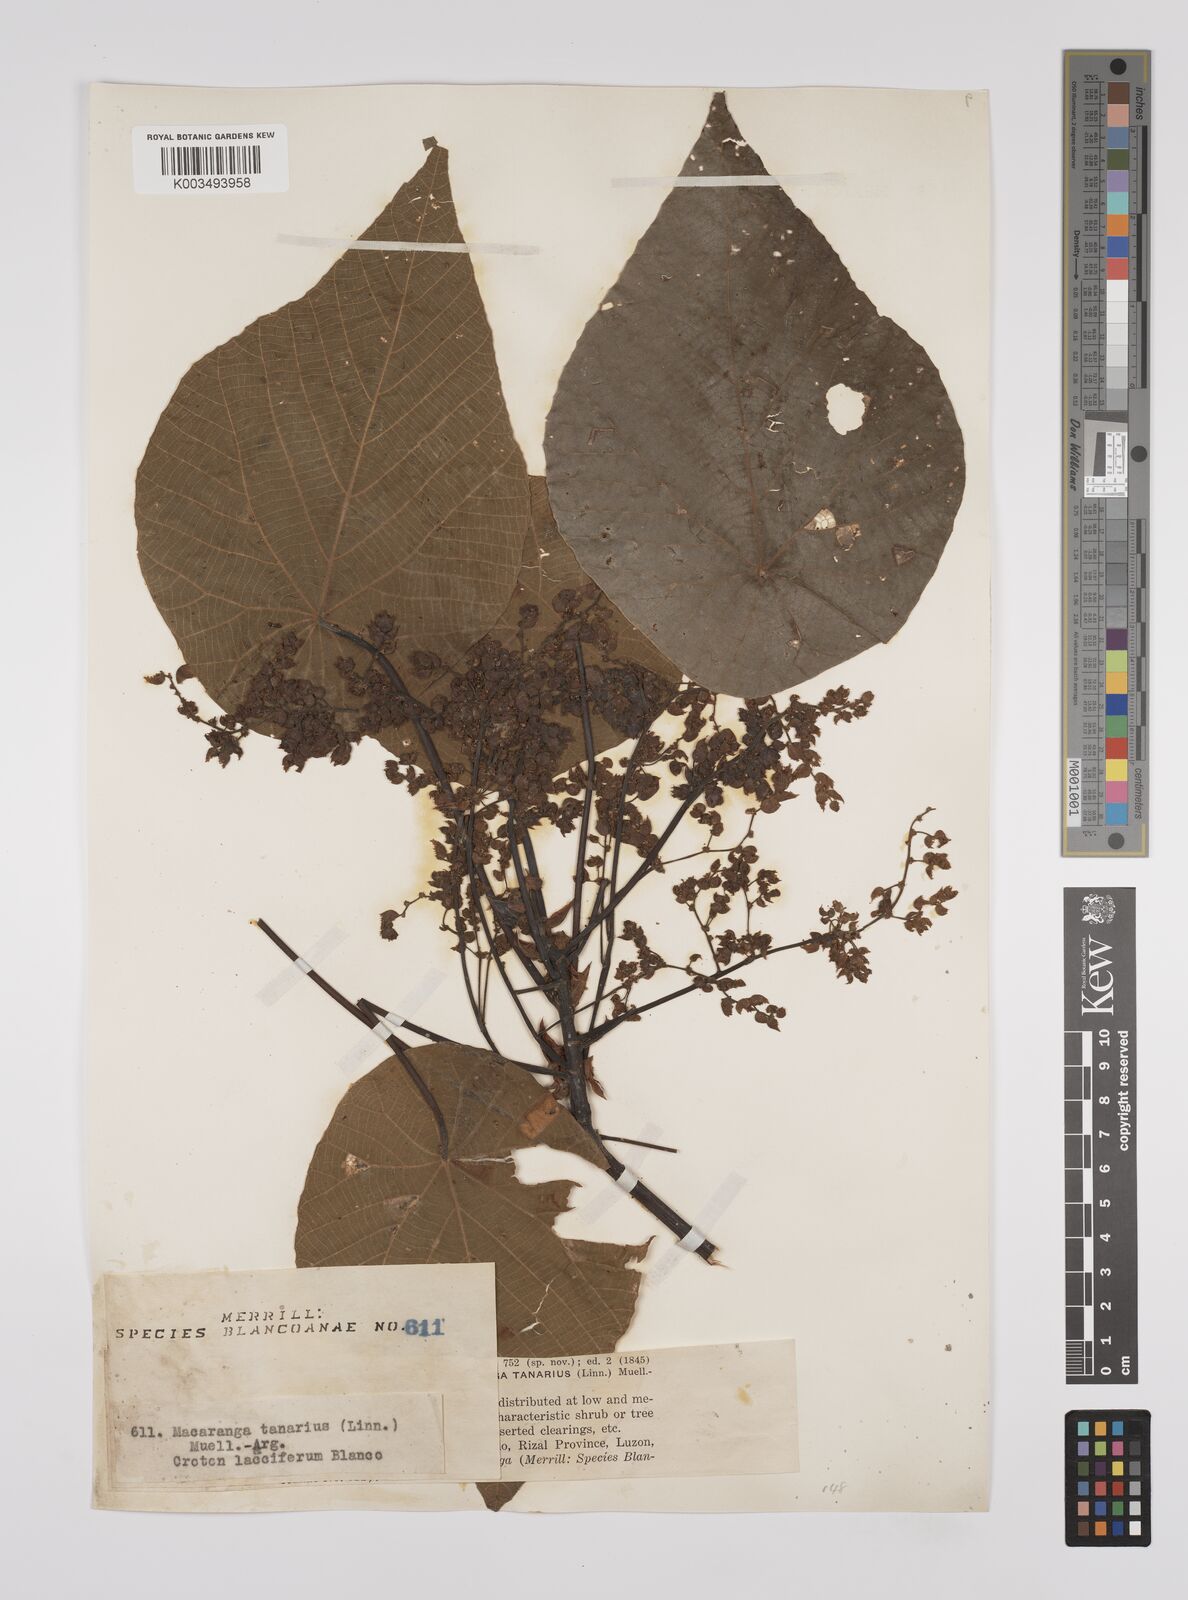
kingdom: Plantae
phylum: Tracheophyta
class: Magnoliopsida
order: Malpighiales
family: Euphorbiaceae
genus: Macaranga
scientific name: Macaranga tanarius
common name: Parasol leaf tree
